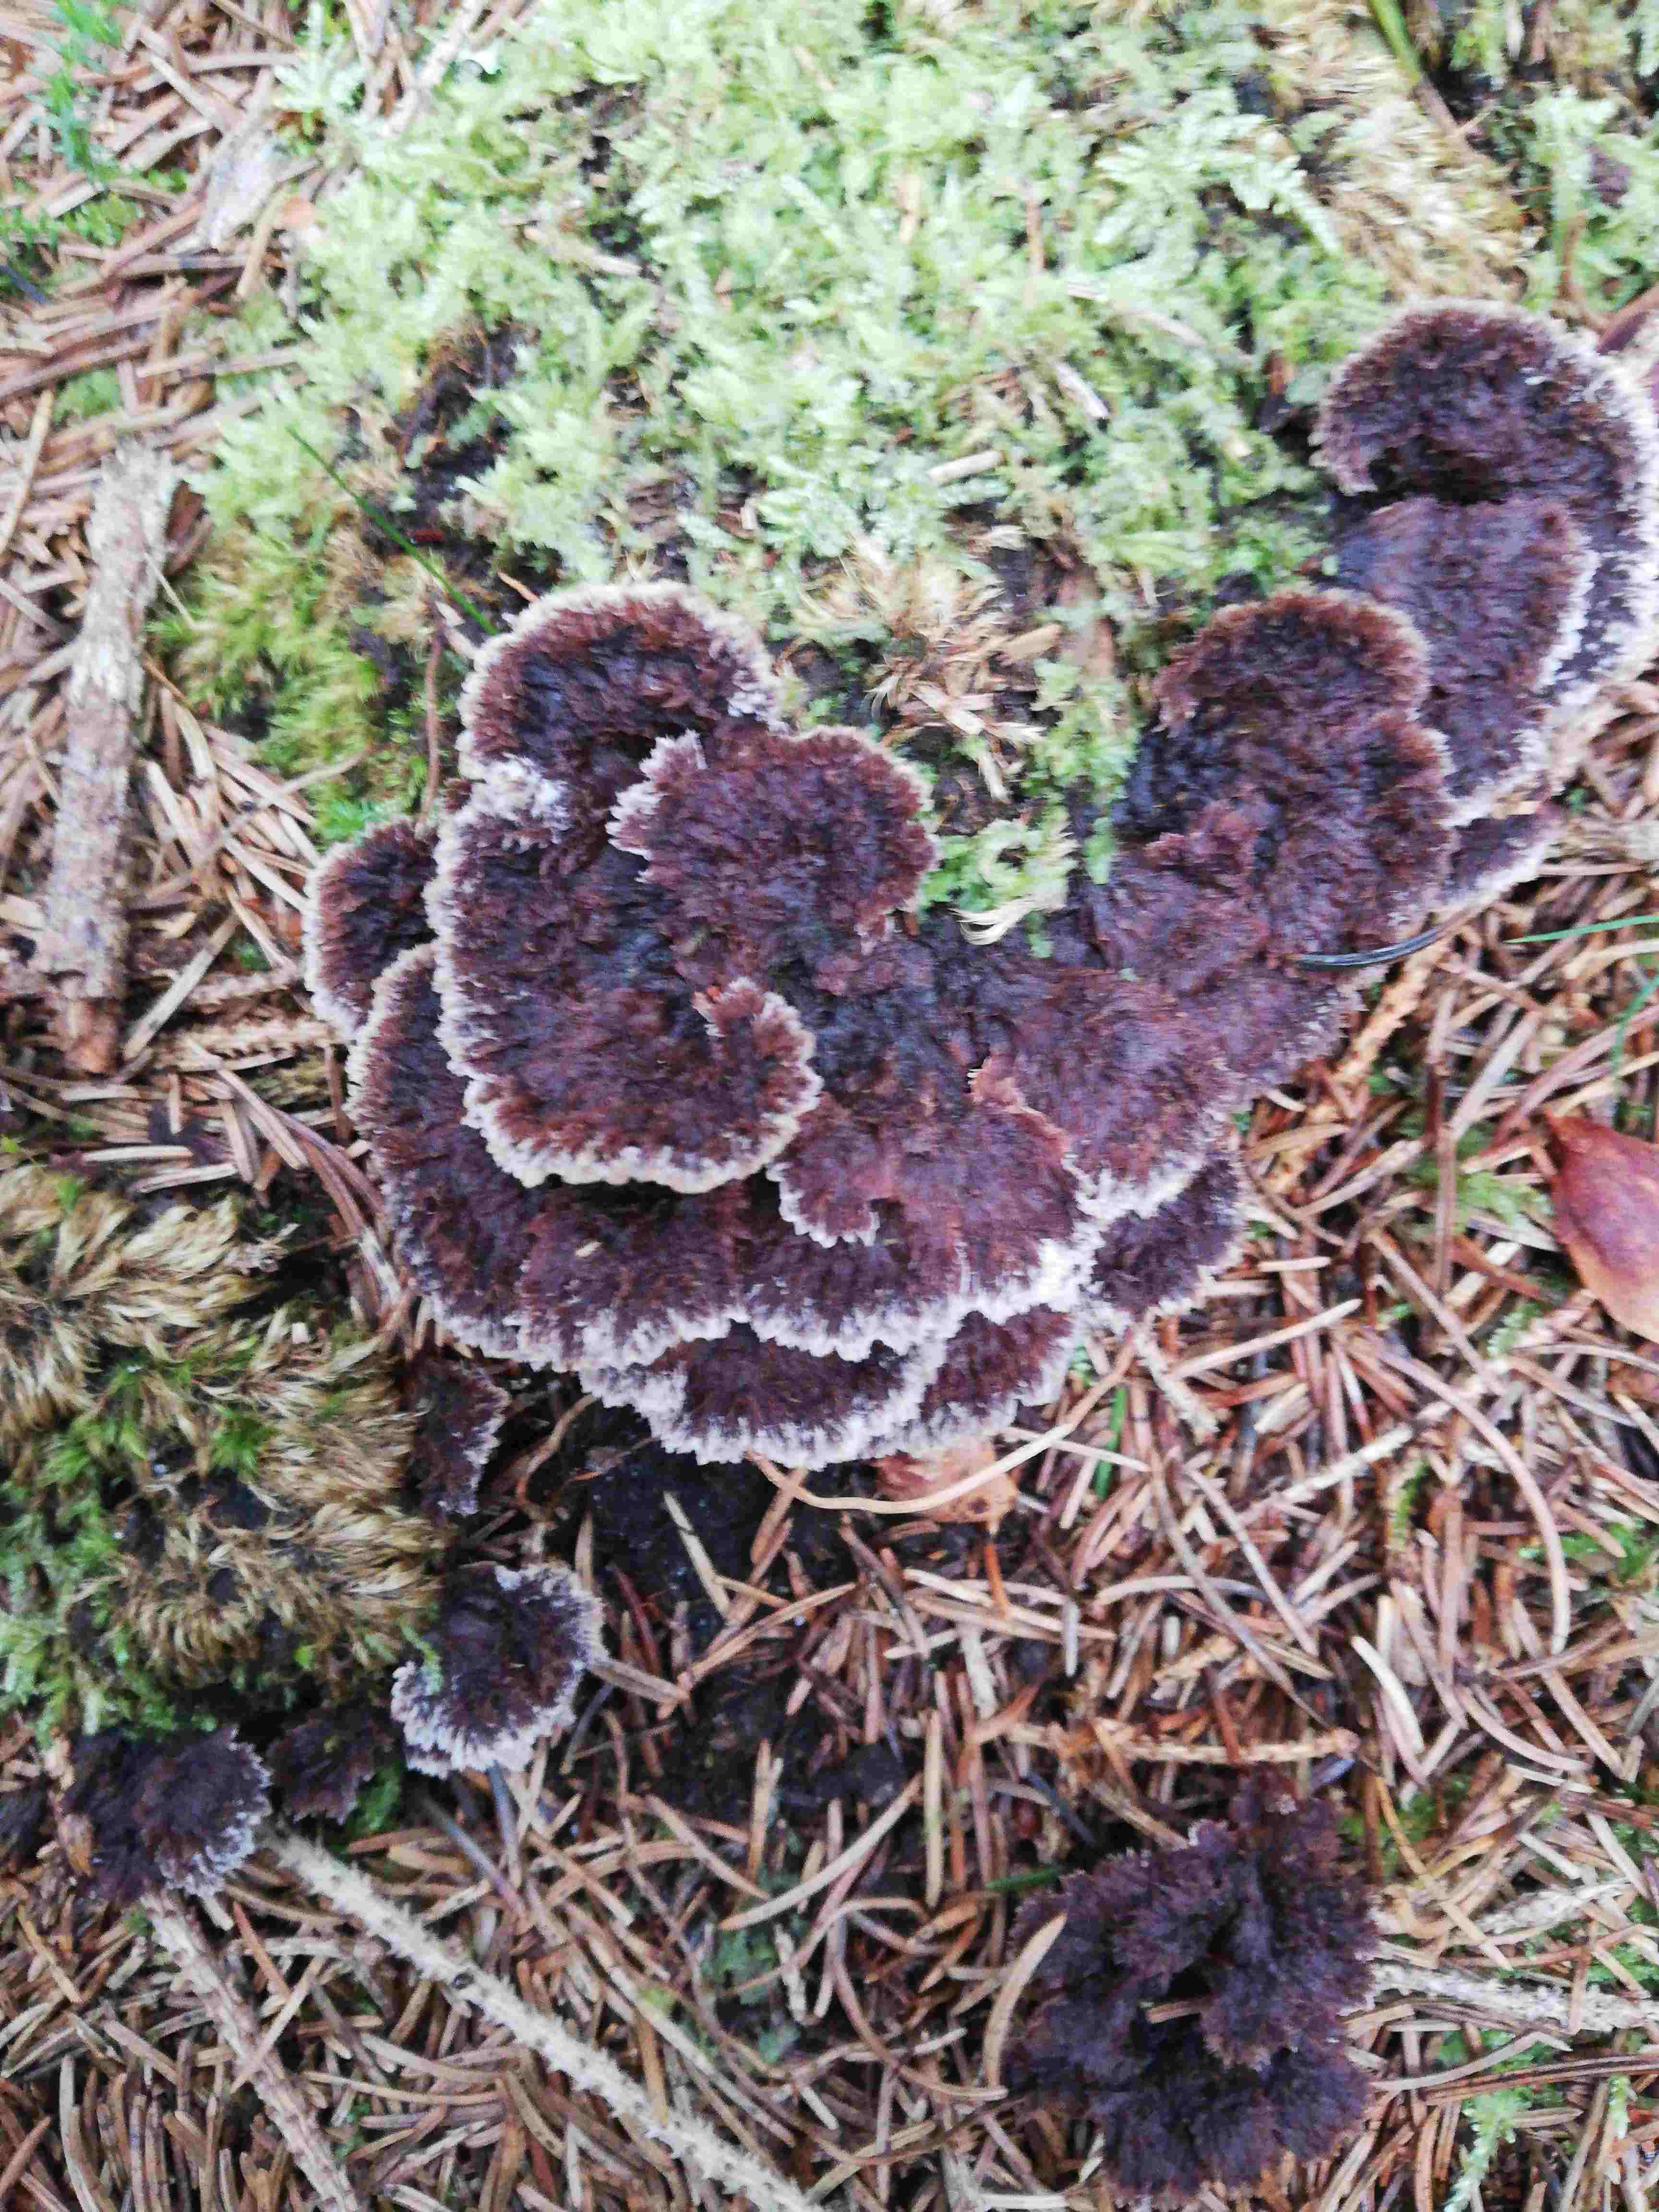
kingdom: Fungi
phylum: Basidiomycota
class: Agaricomycetes
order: Thelephorales
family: Thelephoraceae
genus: Thelephora
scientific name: Thelephora terrestris
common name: fliget frynsesvamp
